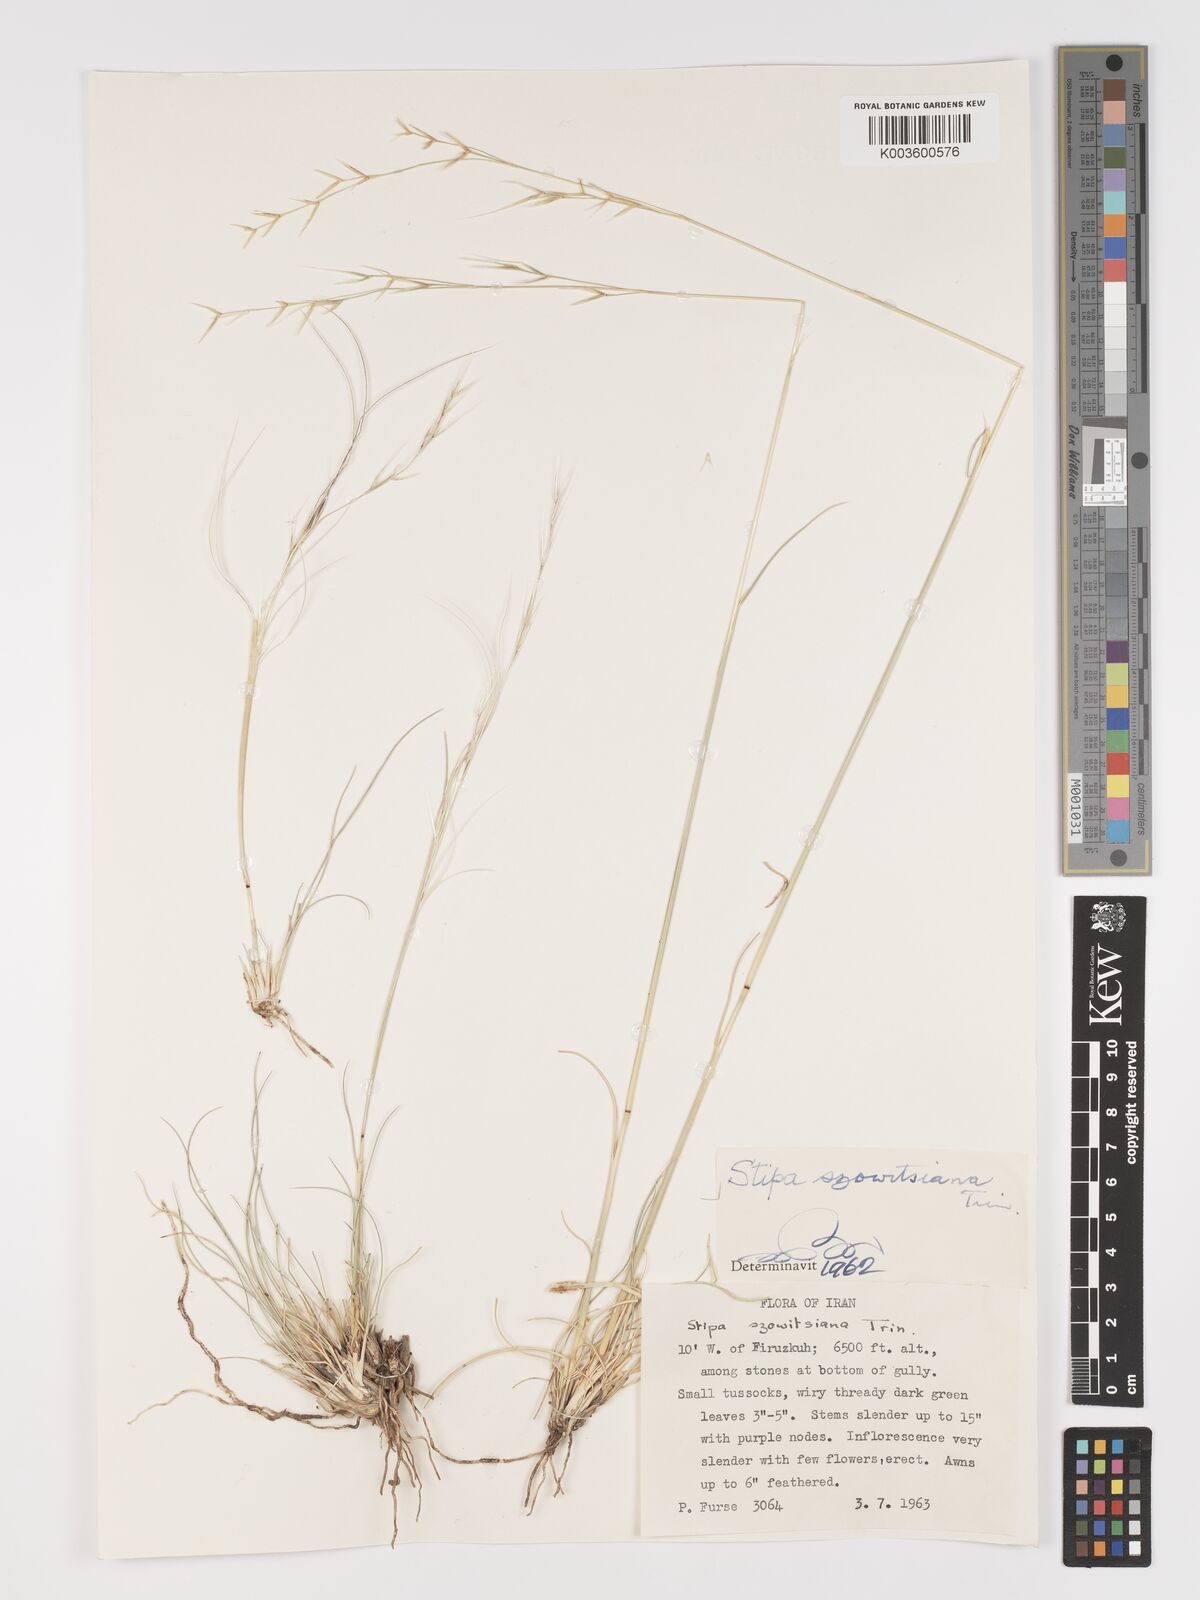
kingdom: Plantae
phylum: Tracheophyta
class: Liliopsida
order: Poales
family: Poaceae
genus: Stipa
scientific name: Stipa barbata
